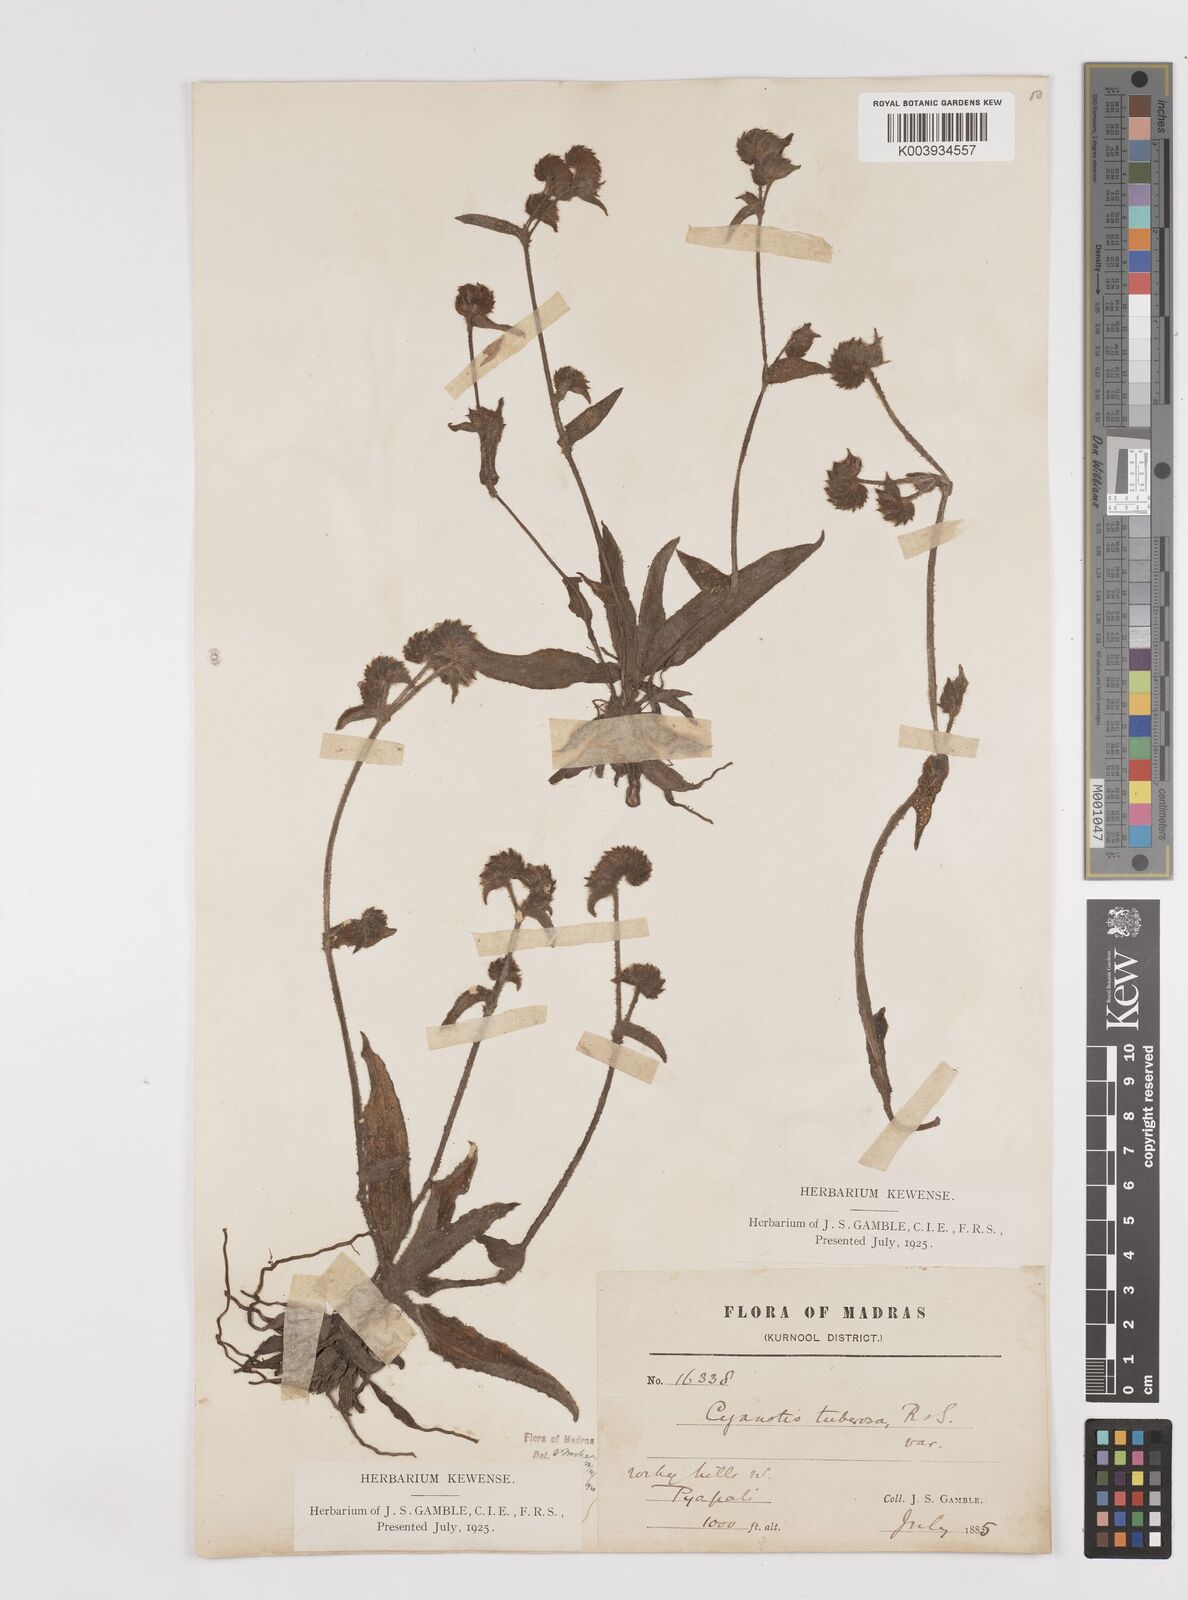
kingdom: Plantae
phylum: Tracheophyta
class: Liliopsida
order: Commelinales
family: Commelinaceae
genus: Cyanotis
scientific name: Cyanotis tuberosa
